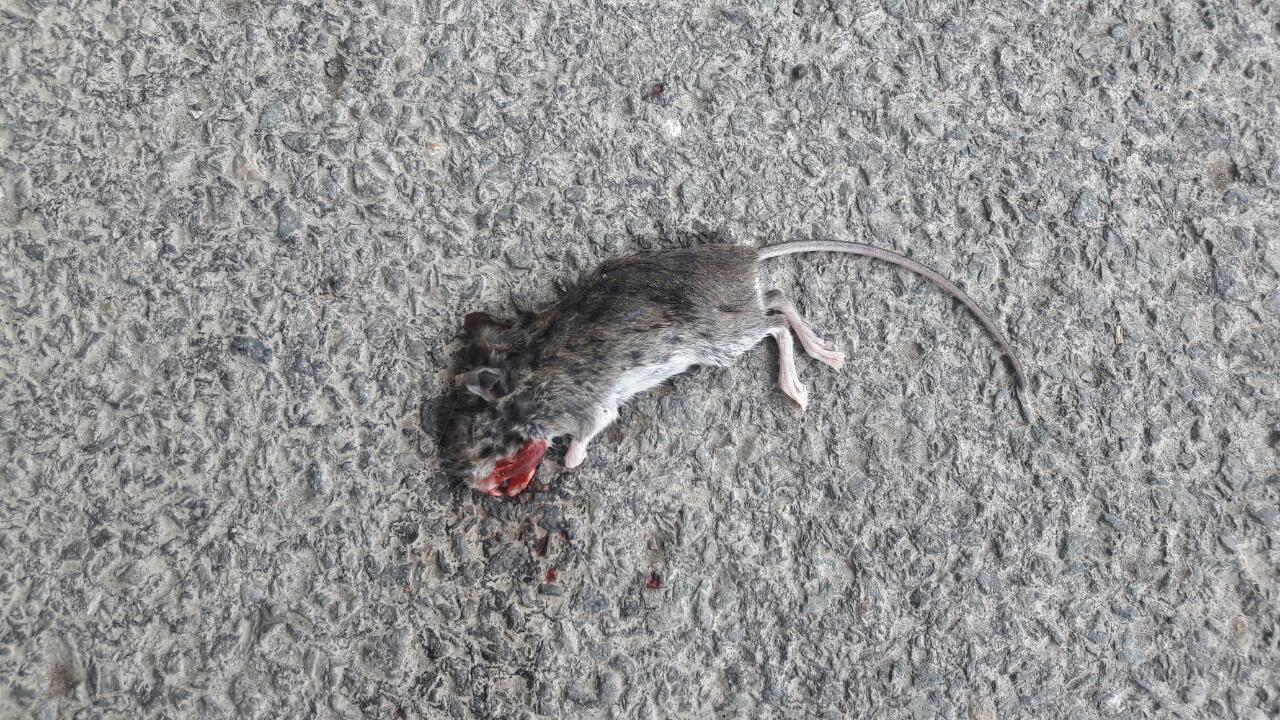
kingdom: Animalia
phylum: Chordata
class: Mammalia
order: Rodentia
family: Muridae
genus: Apodemus
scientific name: Apodemus
